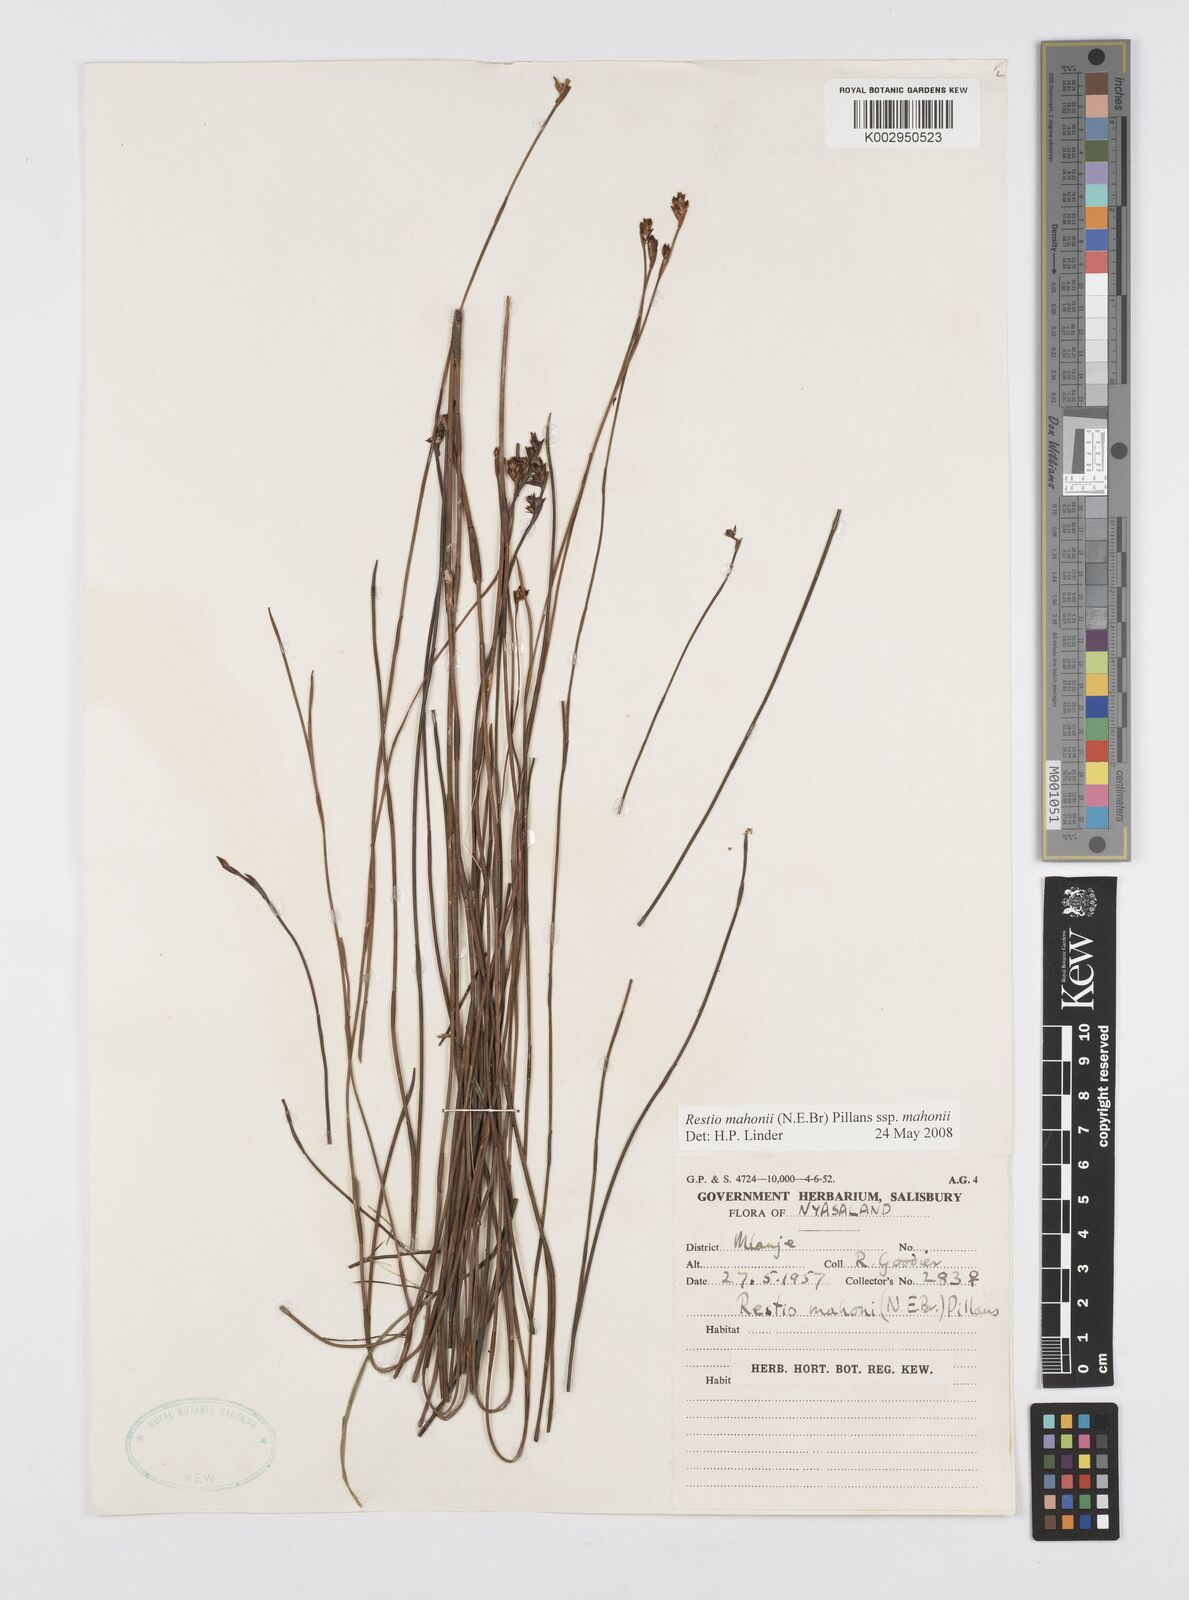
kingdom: Plantae
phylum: Tracheophyta
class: Liliopsida
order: Poales
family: Restionaceae
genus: Platycaulos
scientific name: Platycaulos mahonii
